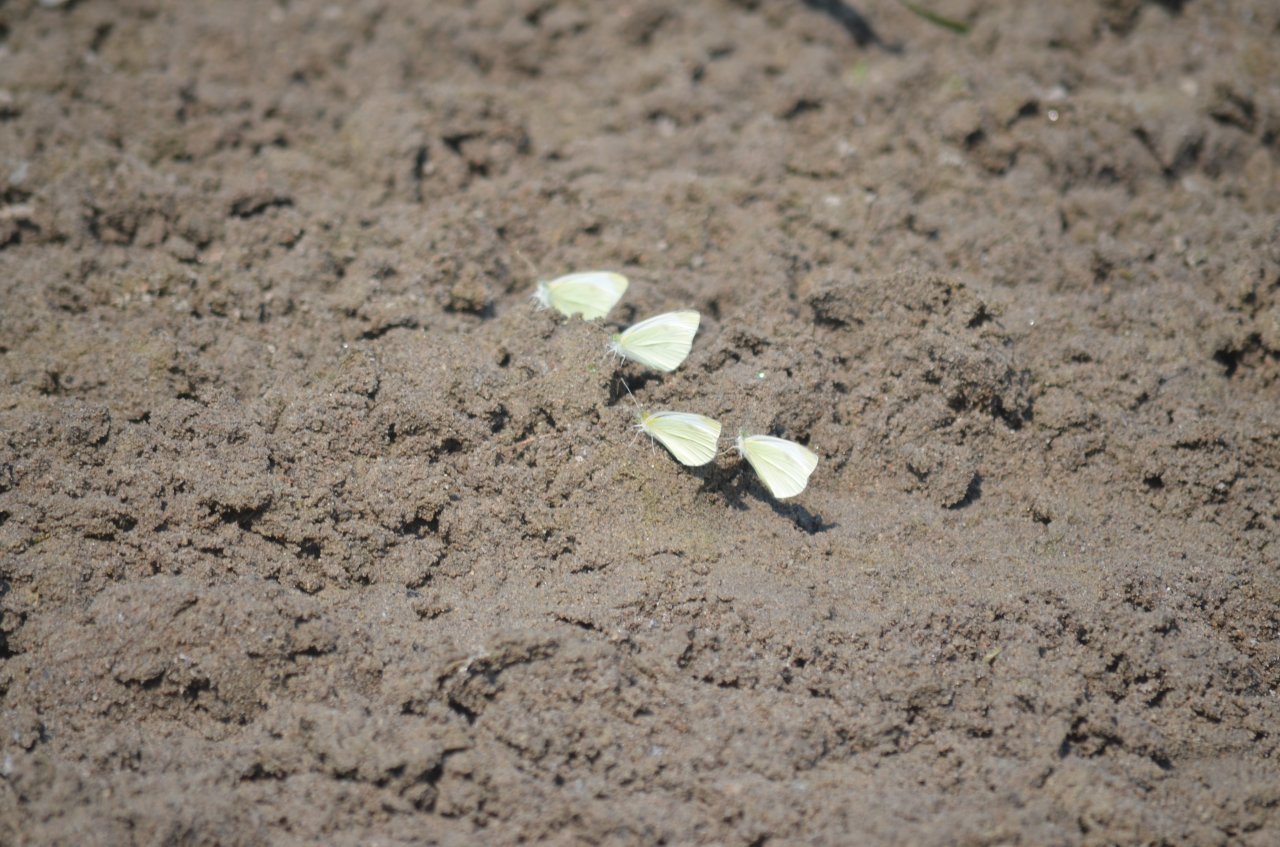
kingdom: Animalia
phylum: Arthropoda
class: Insecta
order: Lepidoptera
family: Pieridae
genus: Pieris
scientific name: Pieris rapae
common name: Cabbage White
